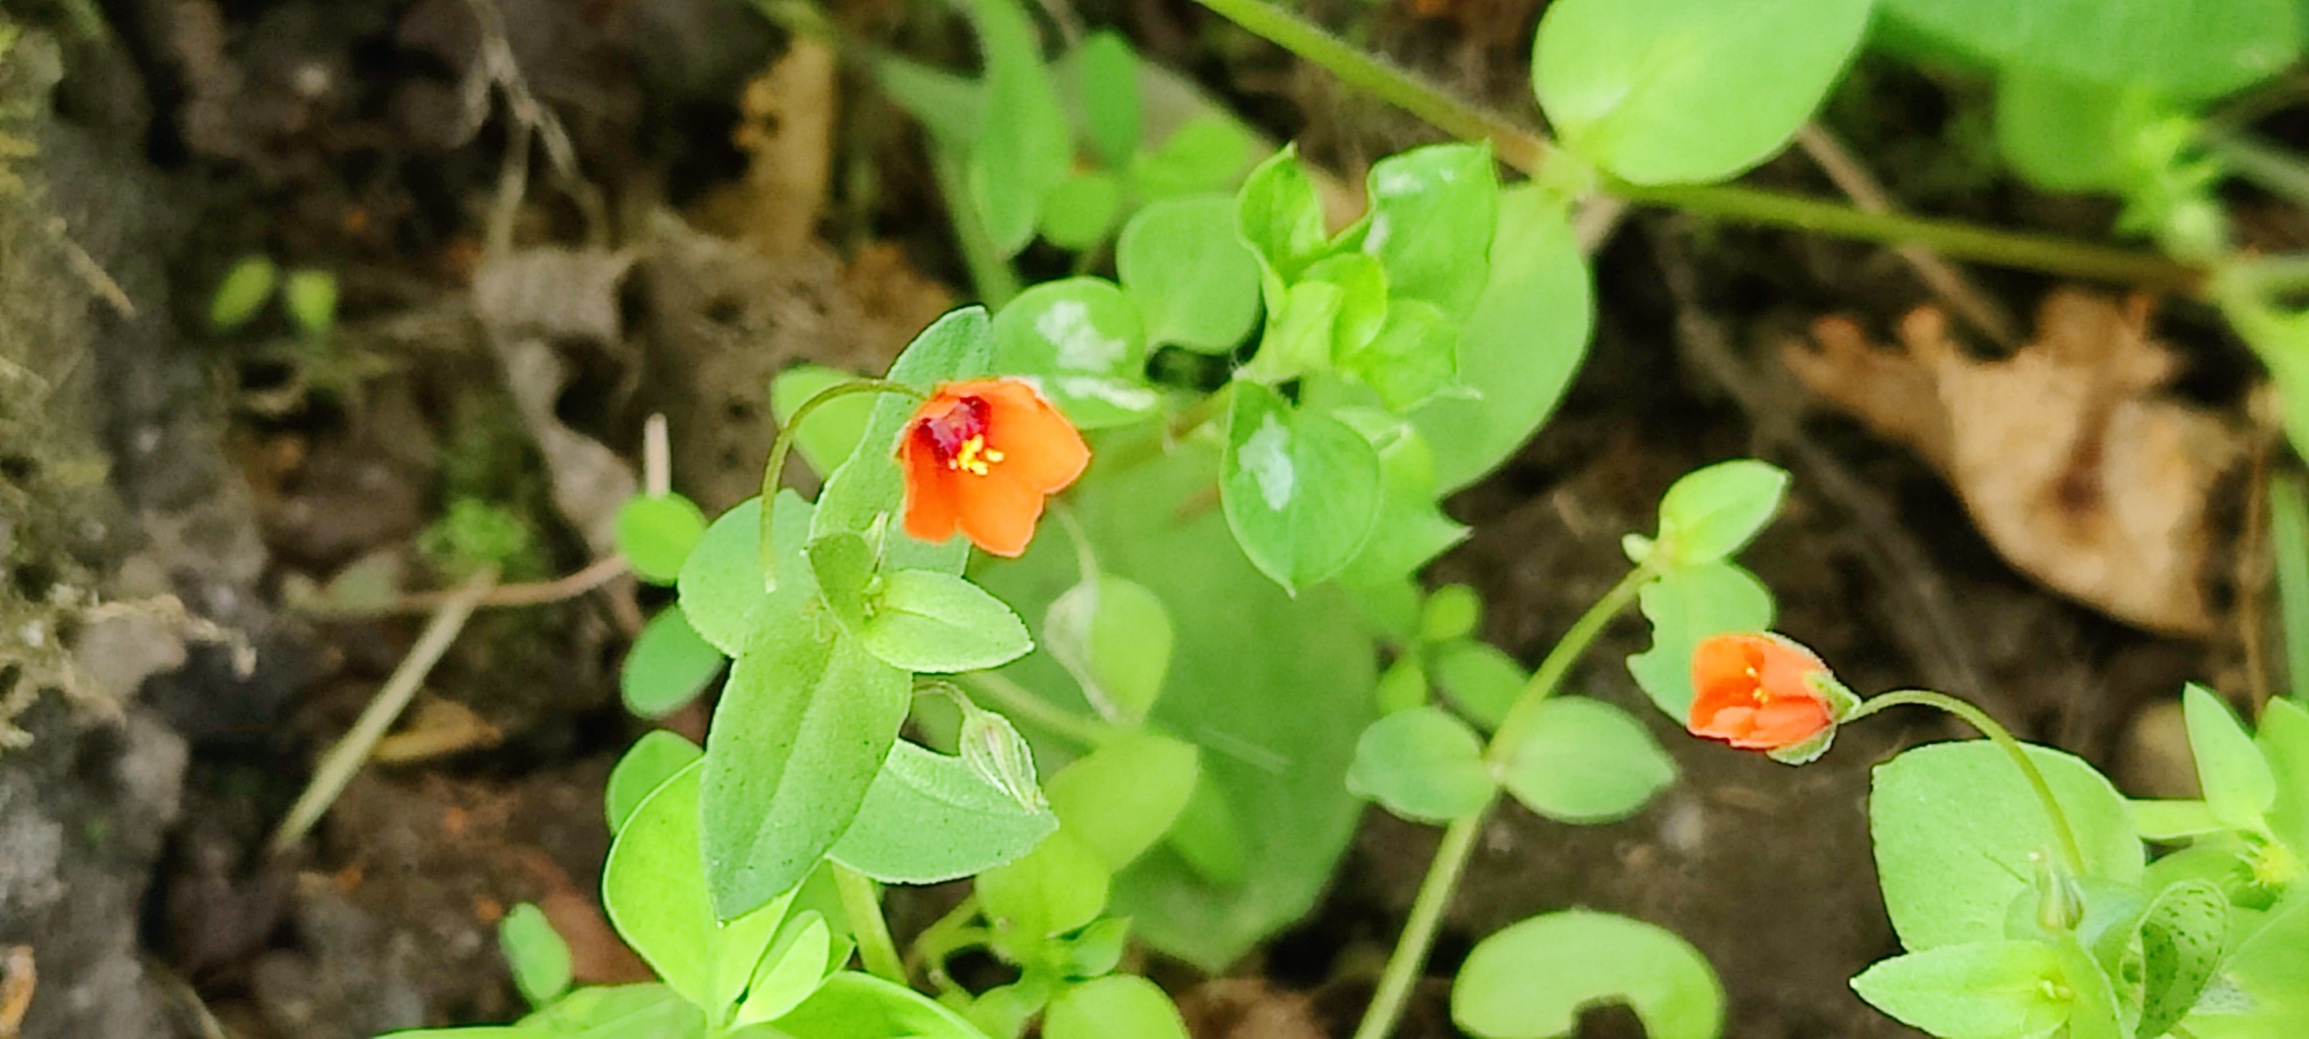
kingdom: Plantae
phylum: Tracheophyta
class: Magnoliopsida
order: Ericales
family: Primulaceae
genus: Lysimachia
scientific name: Lysimachia arvensis
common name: Rød arve
